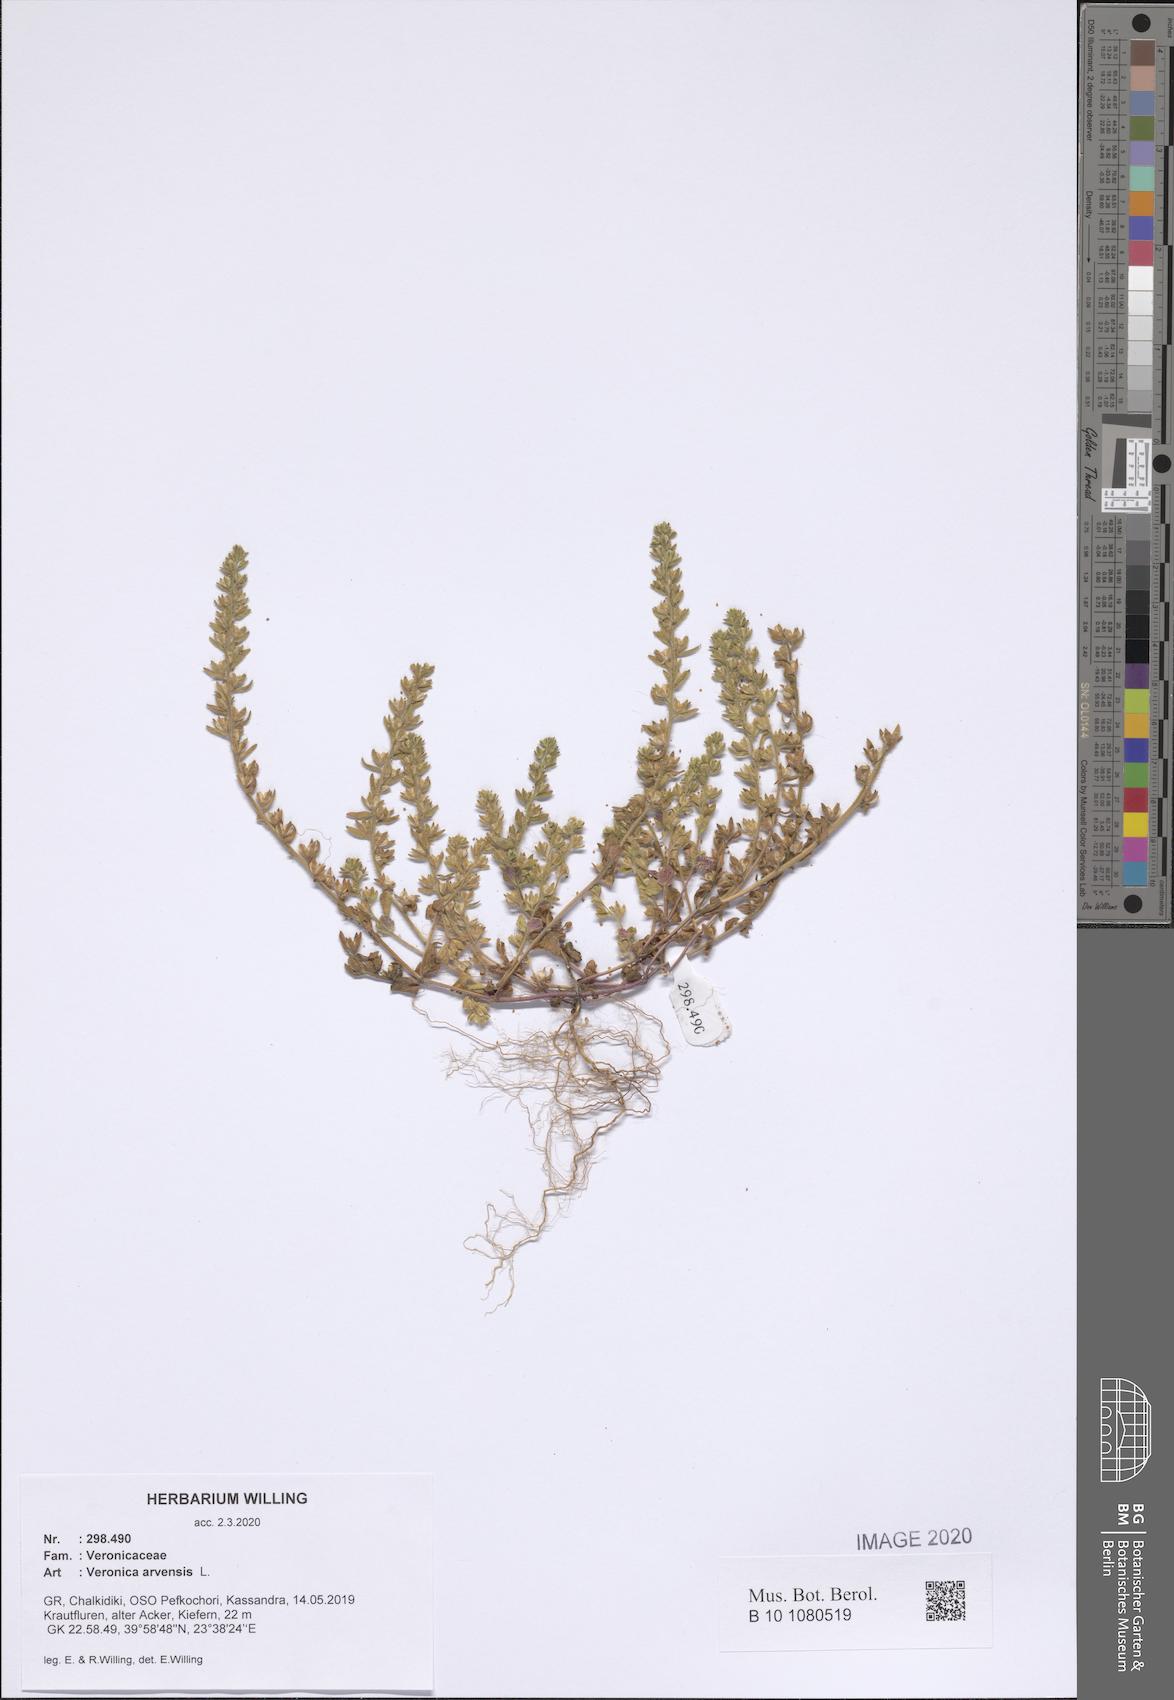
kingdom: Plantae
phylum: Tracheophyta
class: Magnoliopsida
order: Lamiales
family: Plantaginaceae
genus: Veronica
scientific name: Veronica arvensis
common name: Corn speedwell
